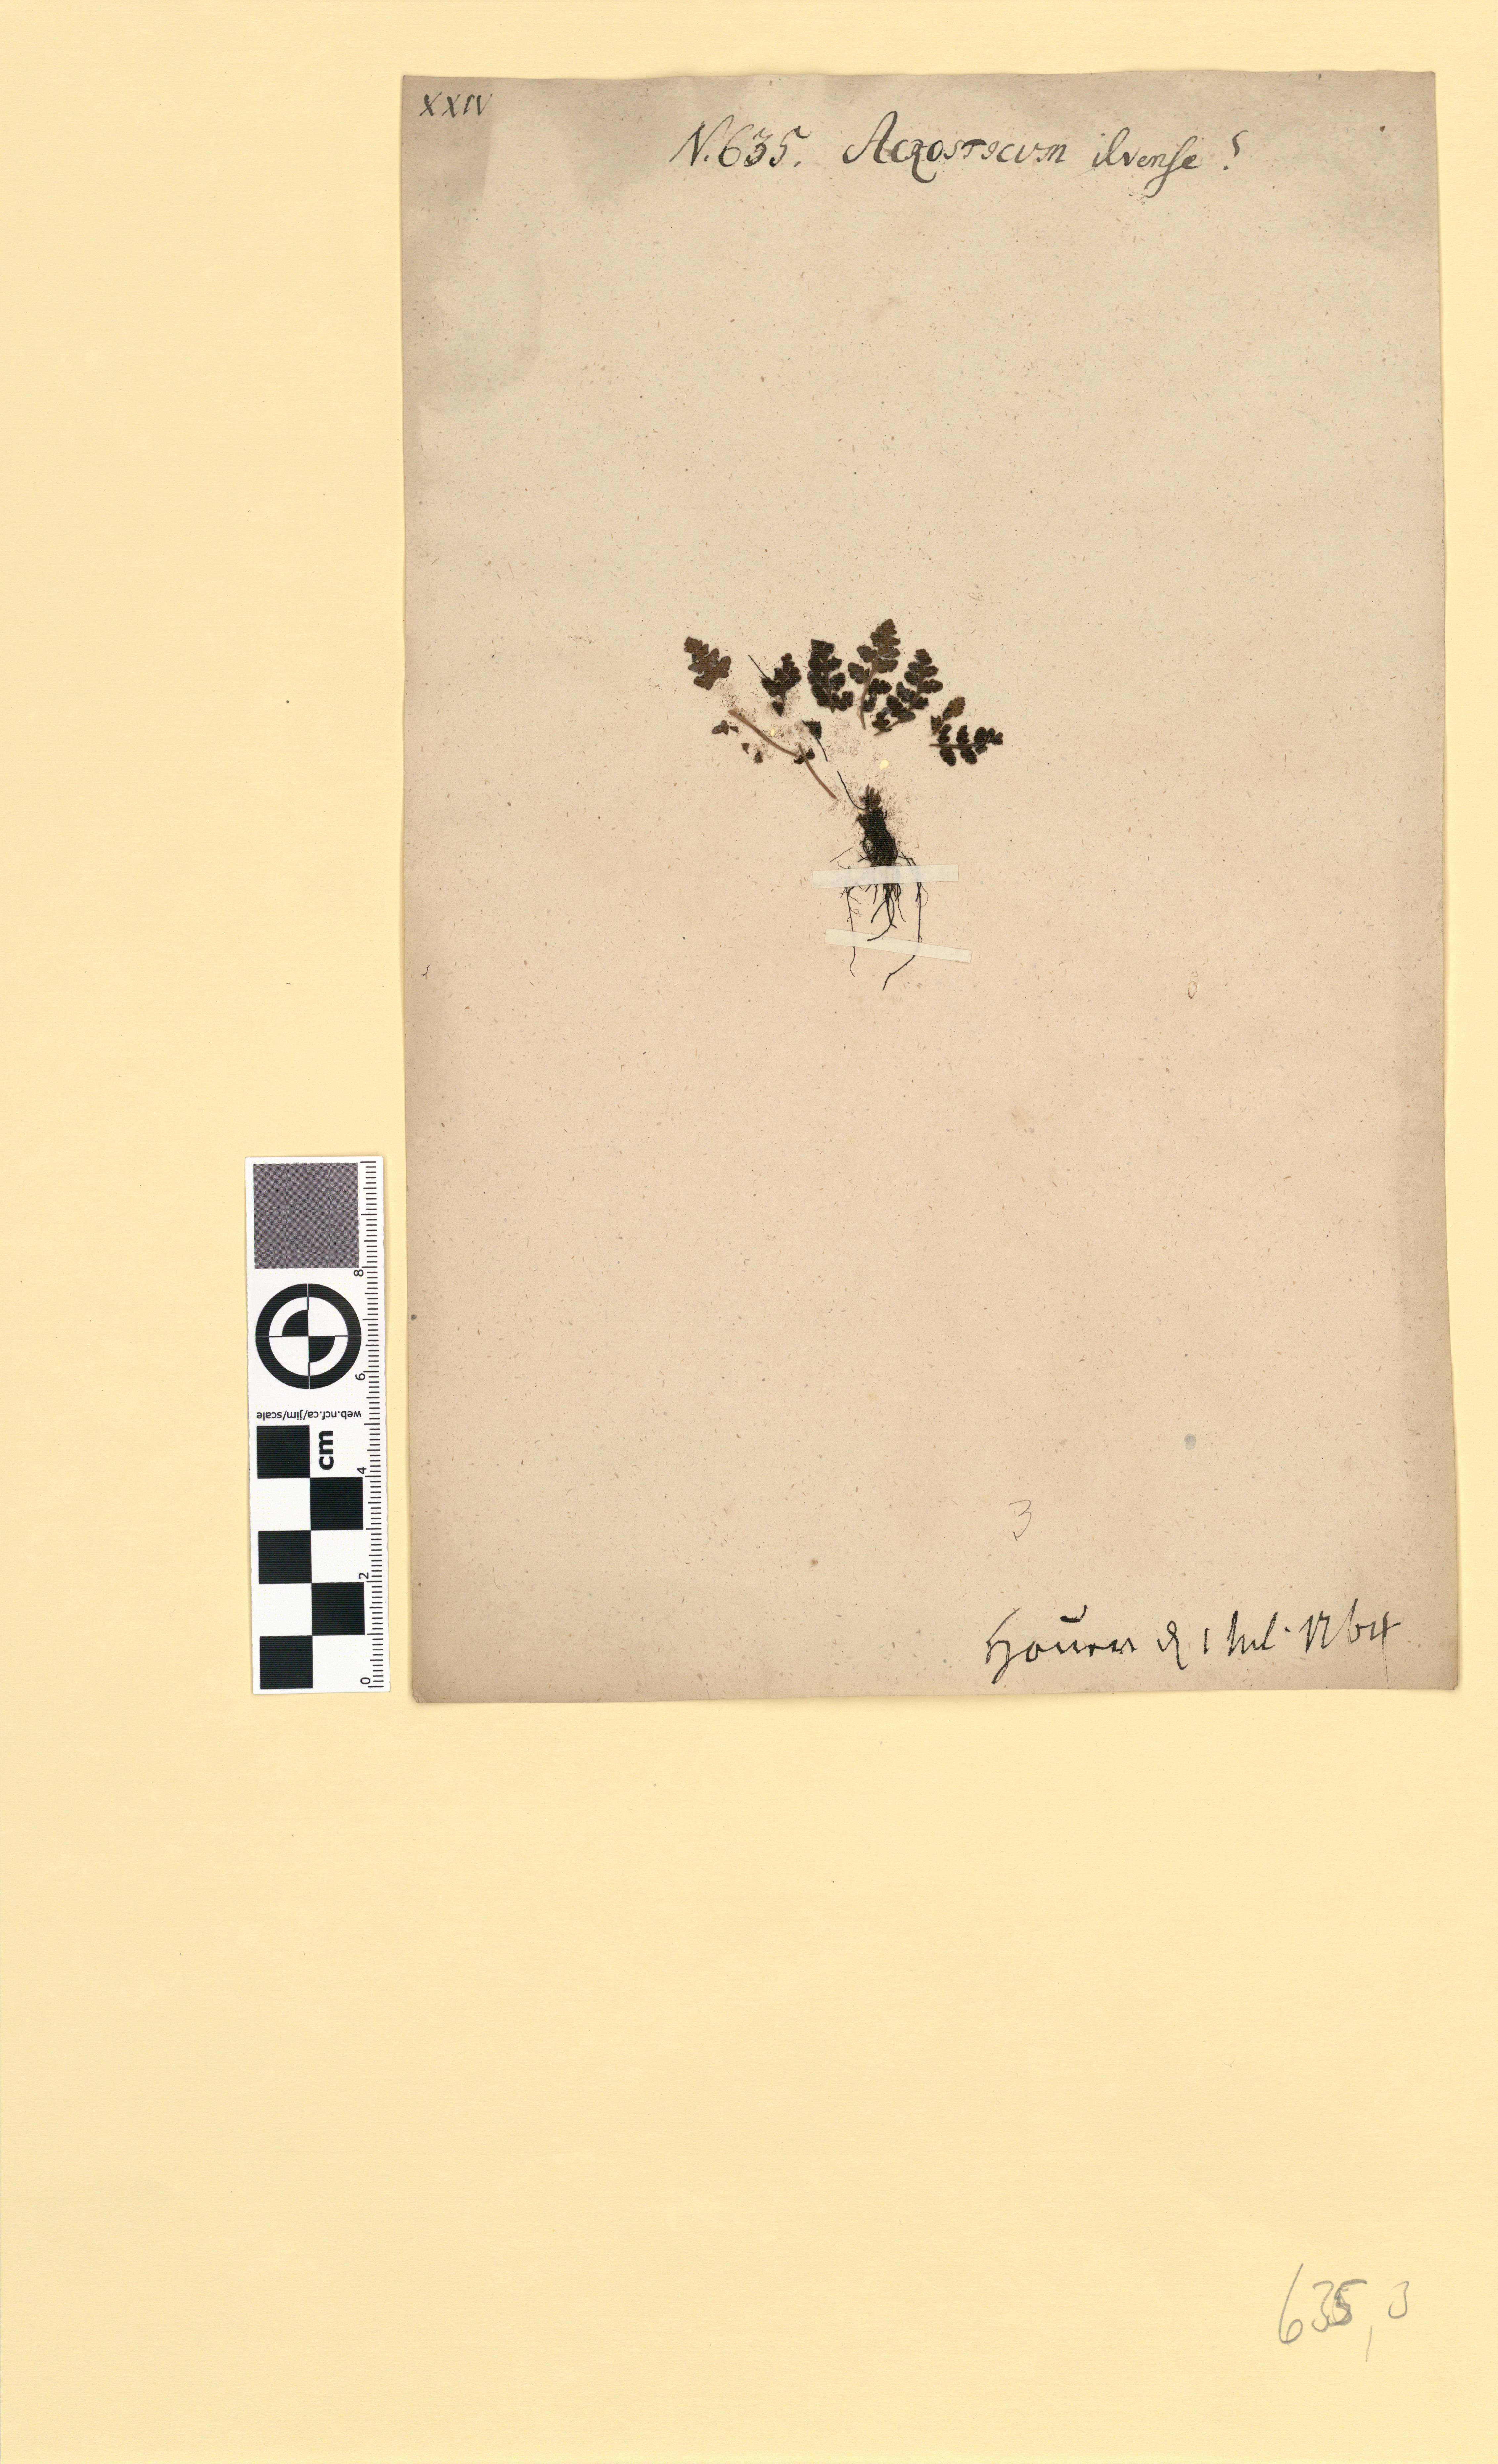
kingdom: Plantae
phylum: Tracheophyta
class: Polypodiopsida
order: Polypodiales
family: Woodsiaceae
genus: Woodsia
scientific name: Woodsia ilvensis
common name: Fragrant woodsia
